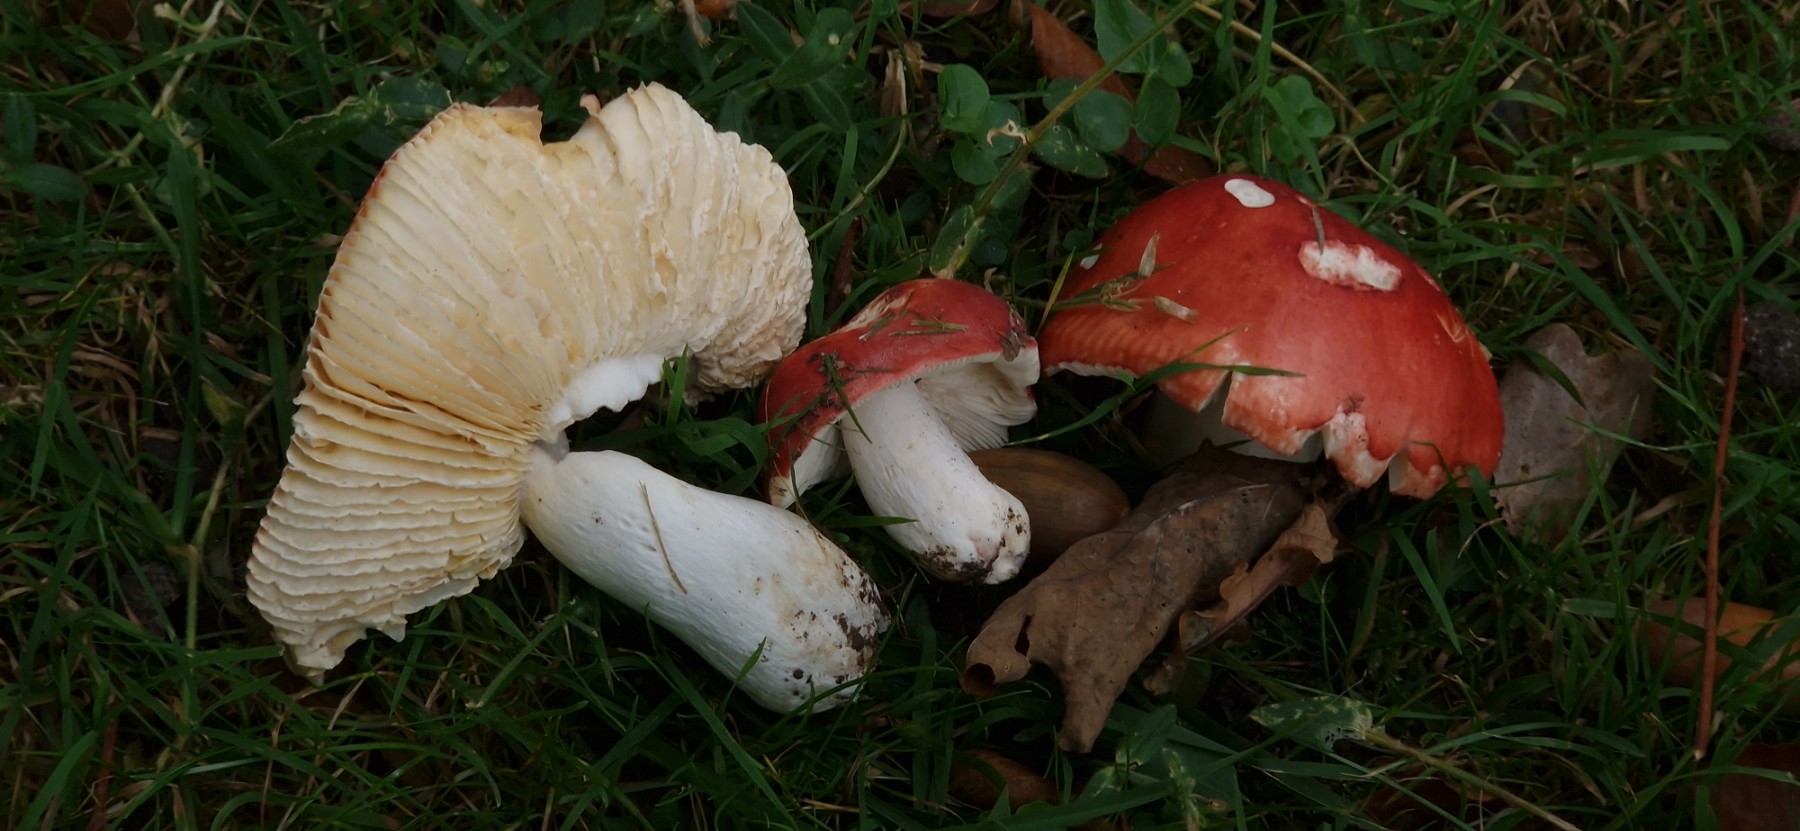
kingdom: Fungi
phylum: Basidiomycota
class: Agaricomycetes
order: Russulales
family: Russulaceae
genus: Russula
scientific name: Russula
